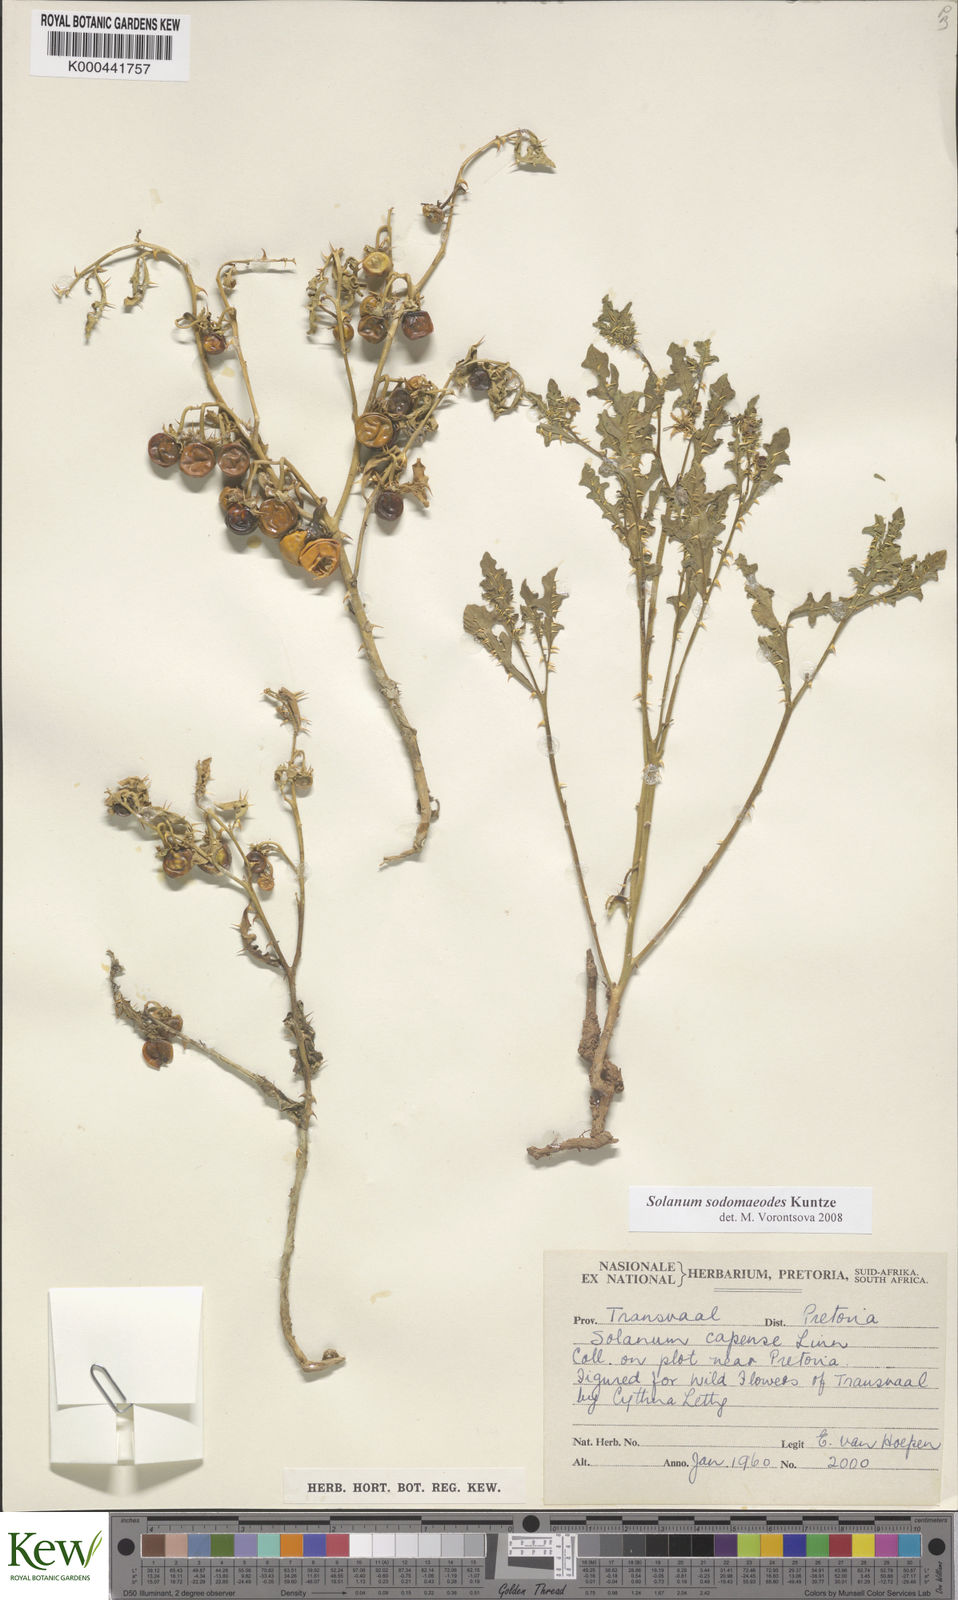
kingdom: Plantae
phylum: Tracheophyta
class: Magnoliopsida
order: Solanales
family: Solanaceae
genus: Solanum
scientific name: Solanum
